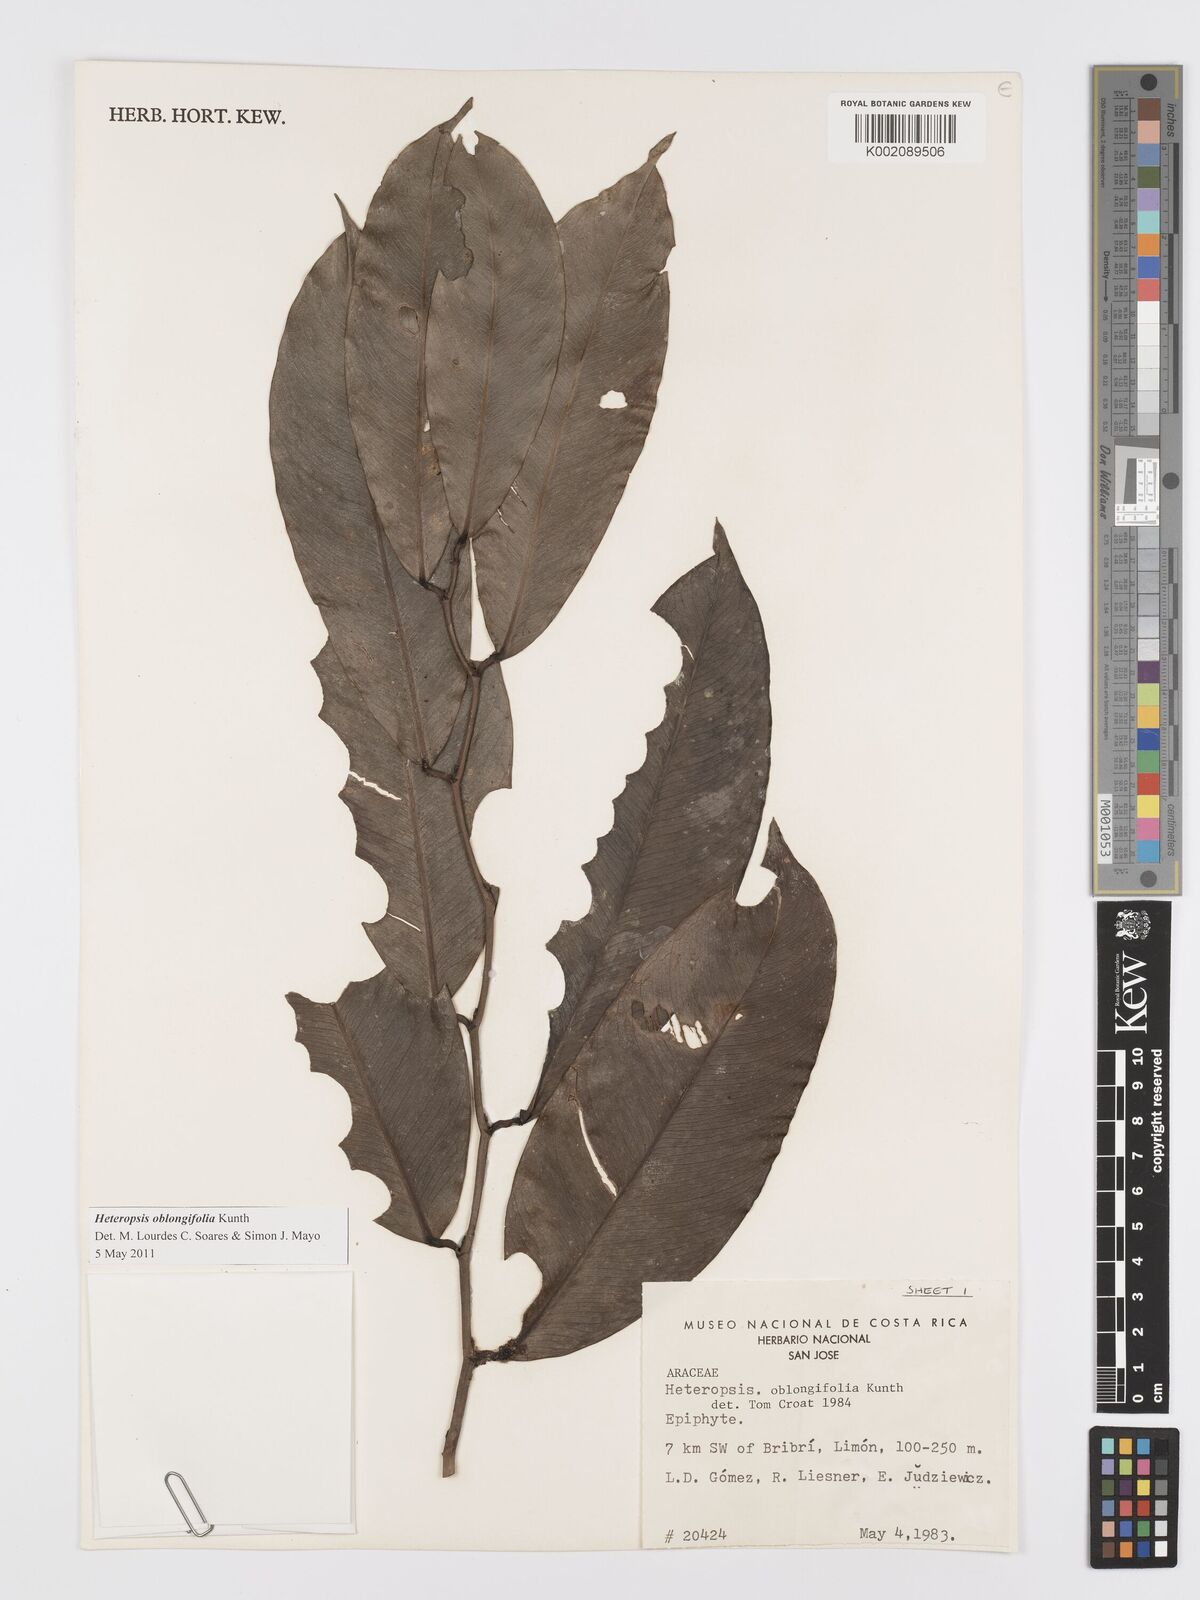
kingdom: Plantae
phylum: Tracheophyta
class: Liliopsida
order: Alismatales
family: Araceae
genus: Heteropsis
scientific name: Heteropsis oblongifolia
